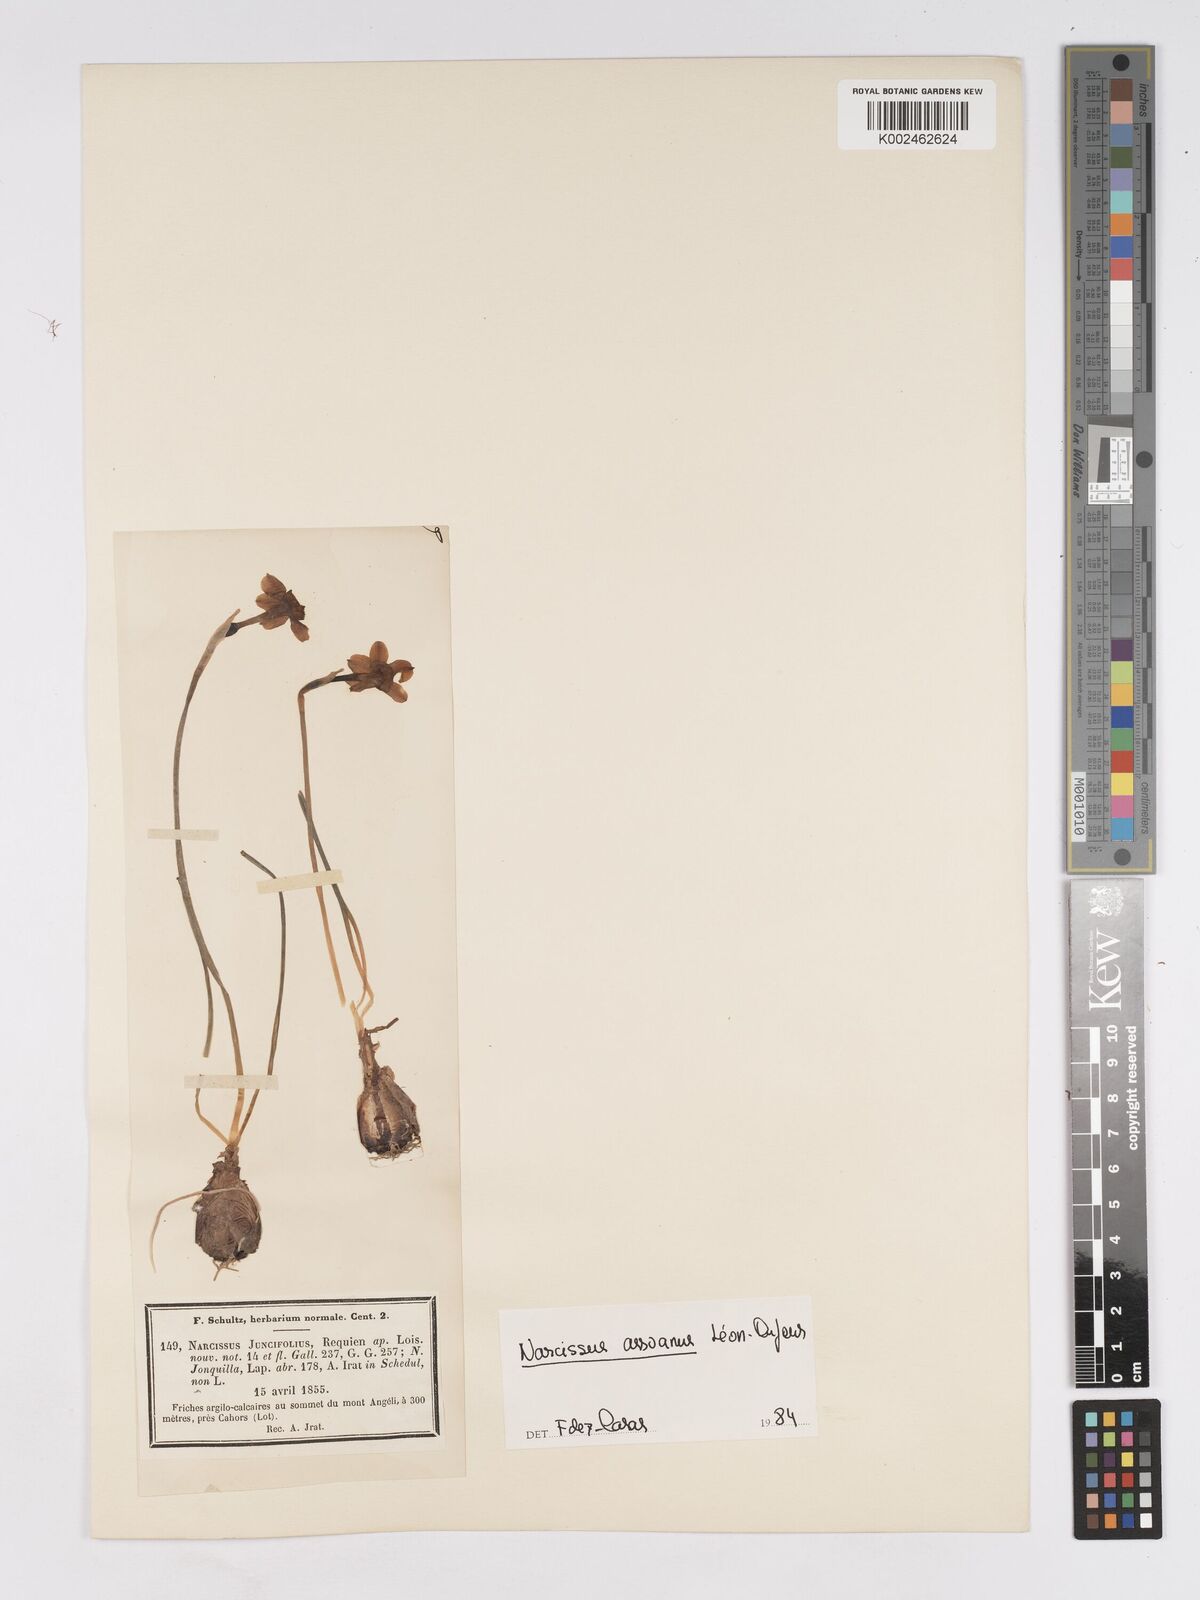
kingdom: Plantae
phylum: Tracheophyta
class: Liliopsida
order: Asparagales
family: Amaryllidaceae
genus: Narcissus
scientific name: Narcissus assoanus
